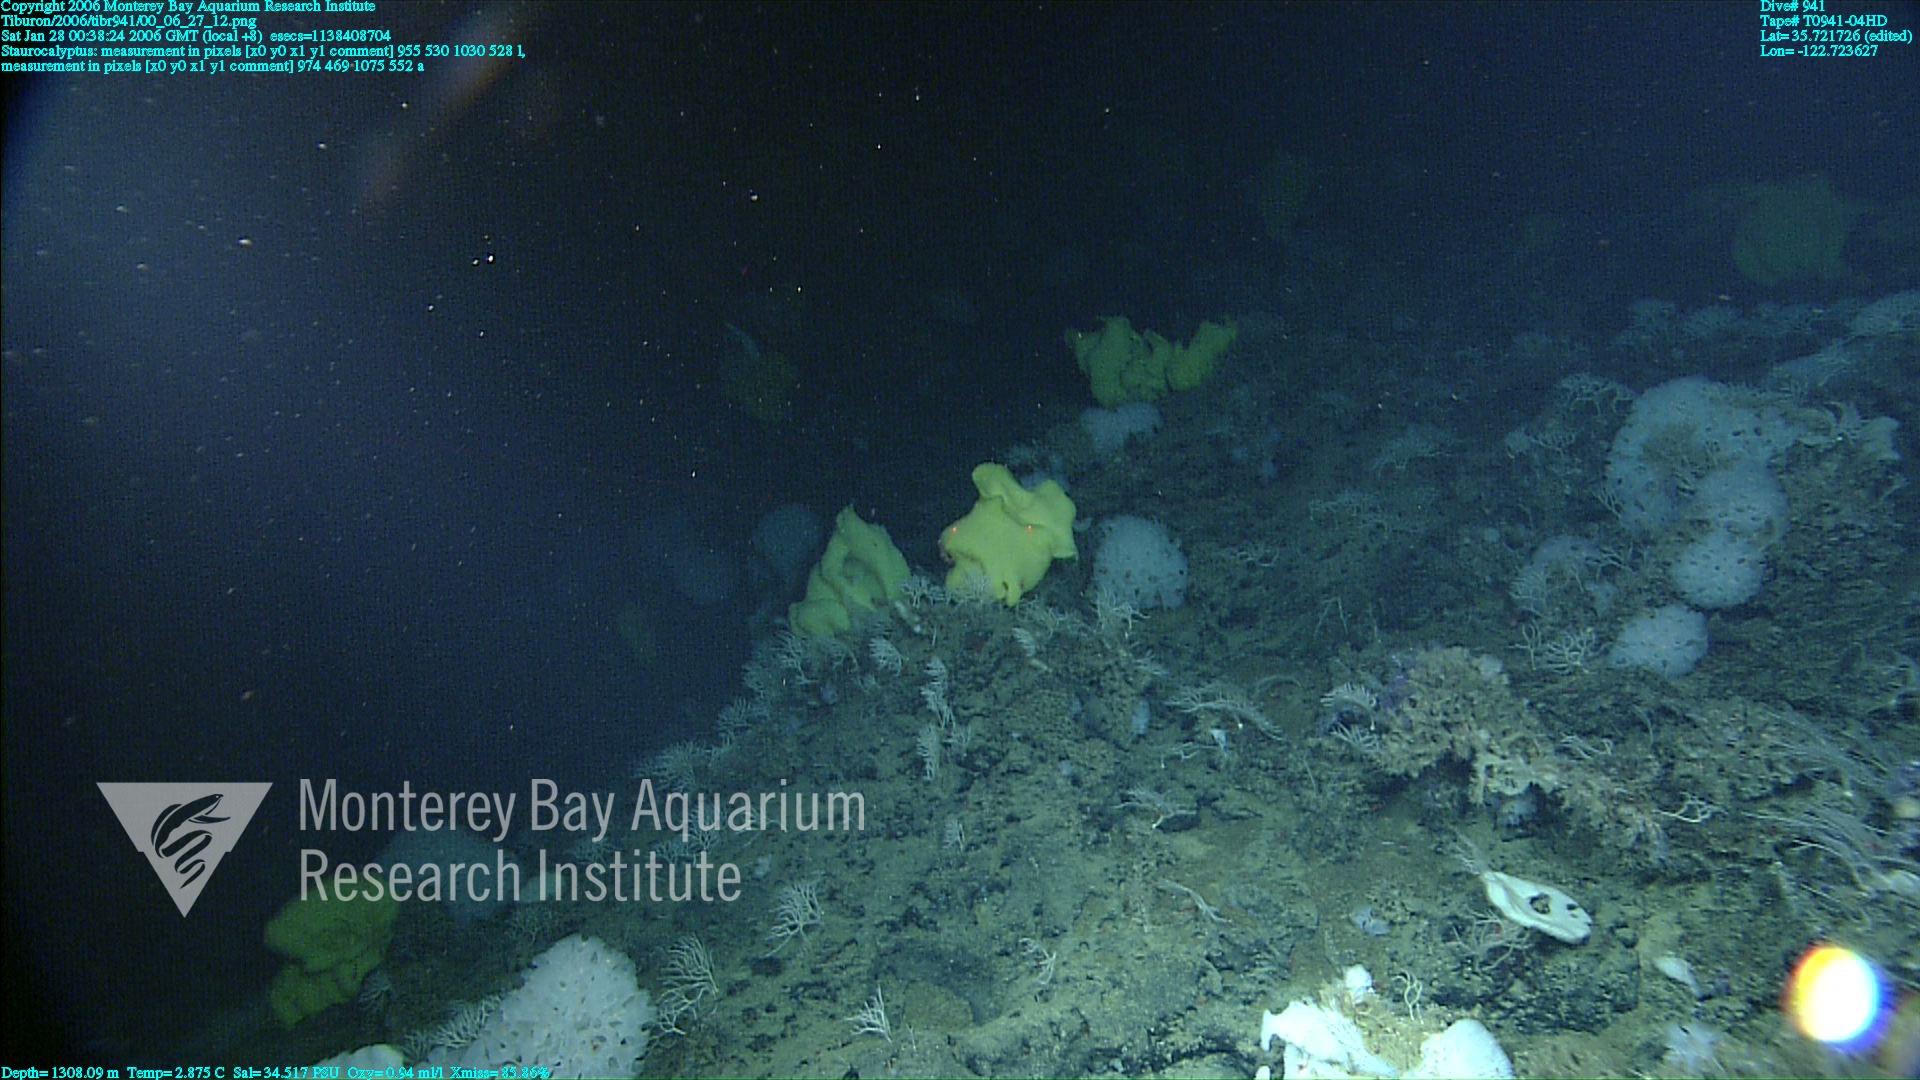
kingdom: Animalia
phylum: Porifera
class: Hexactinellida
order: Lyssacinosida
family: Rossellidae
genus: Staurocalyptus
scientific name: Staurocalyptus
